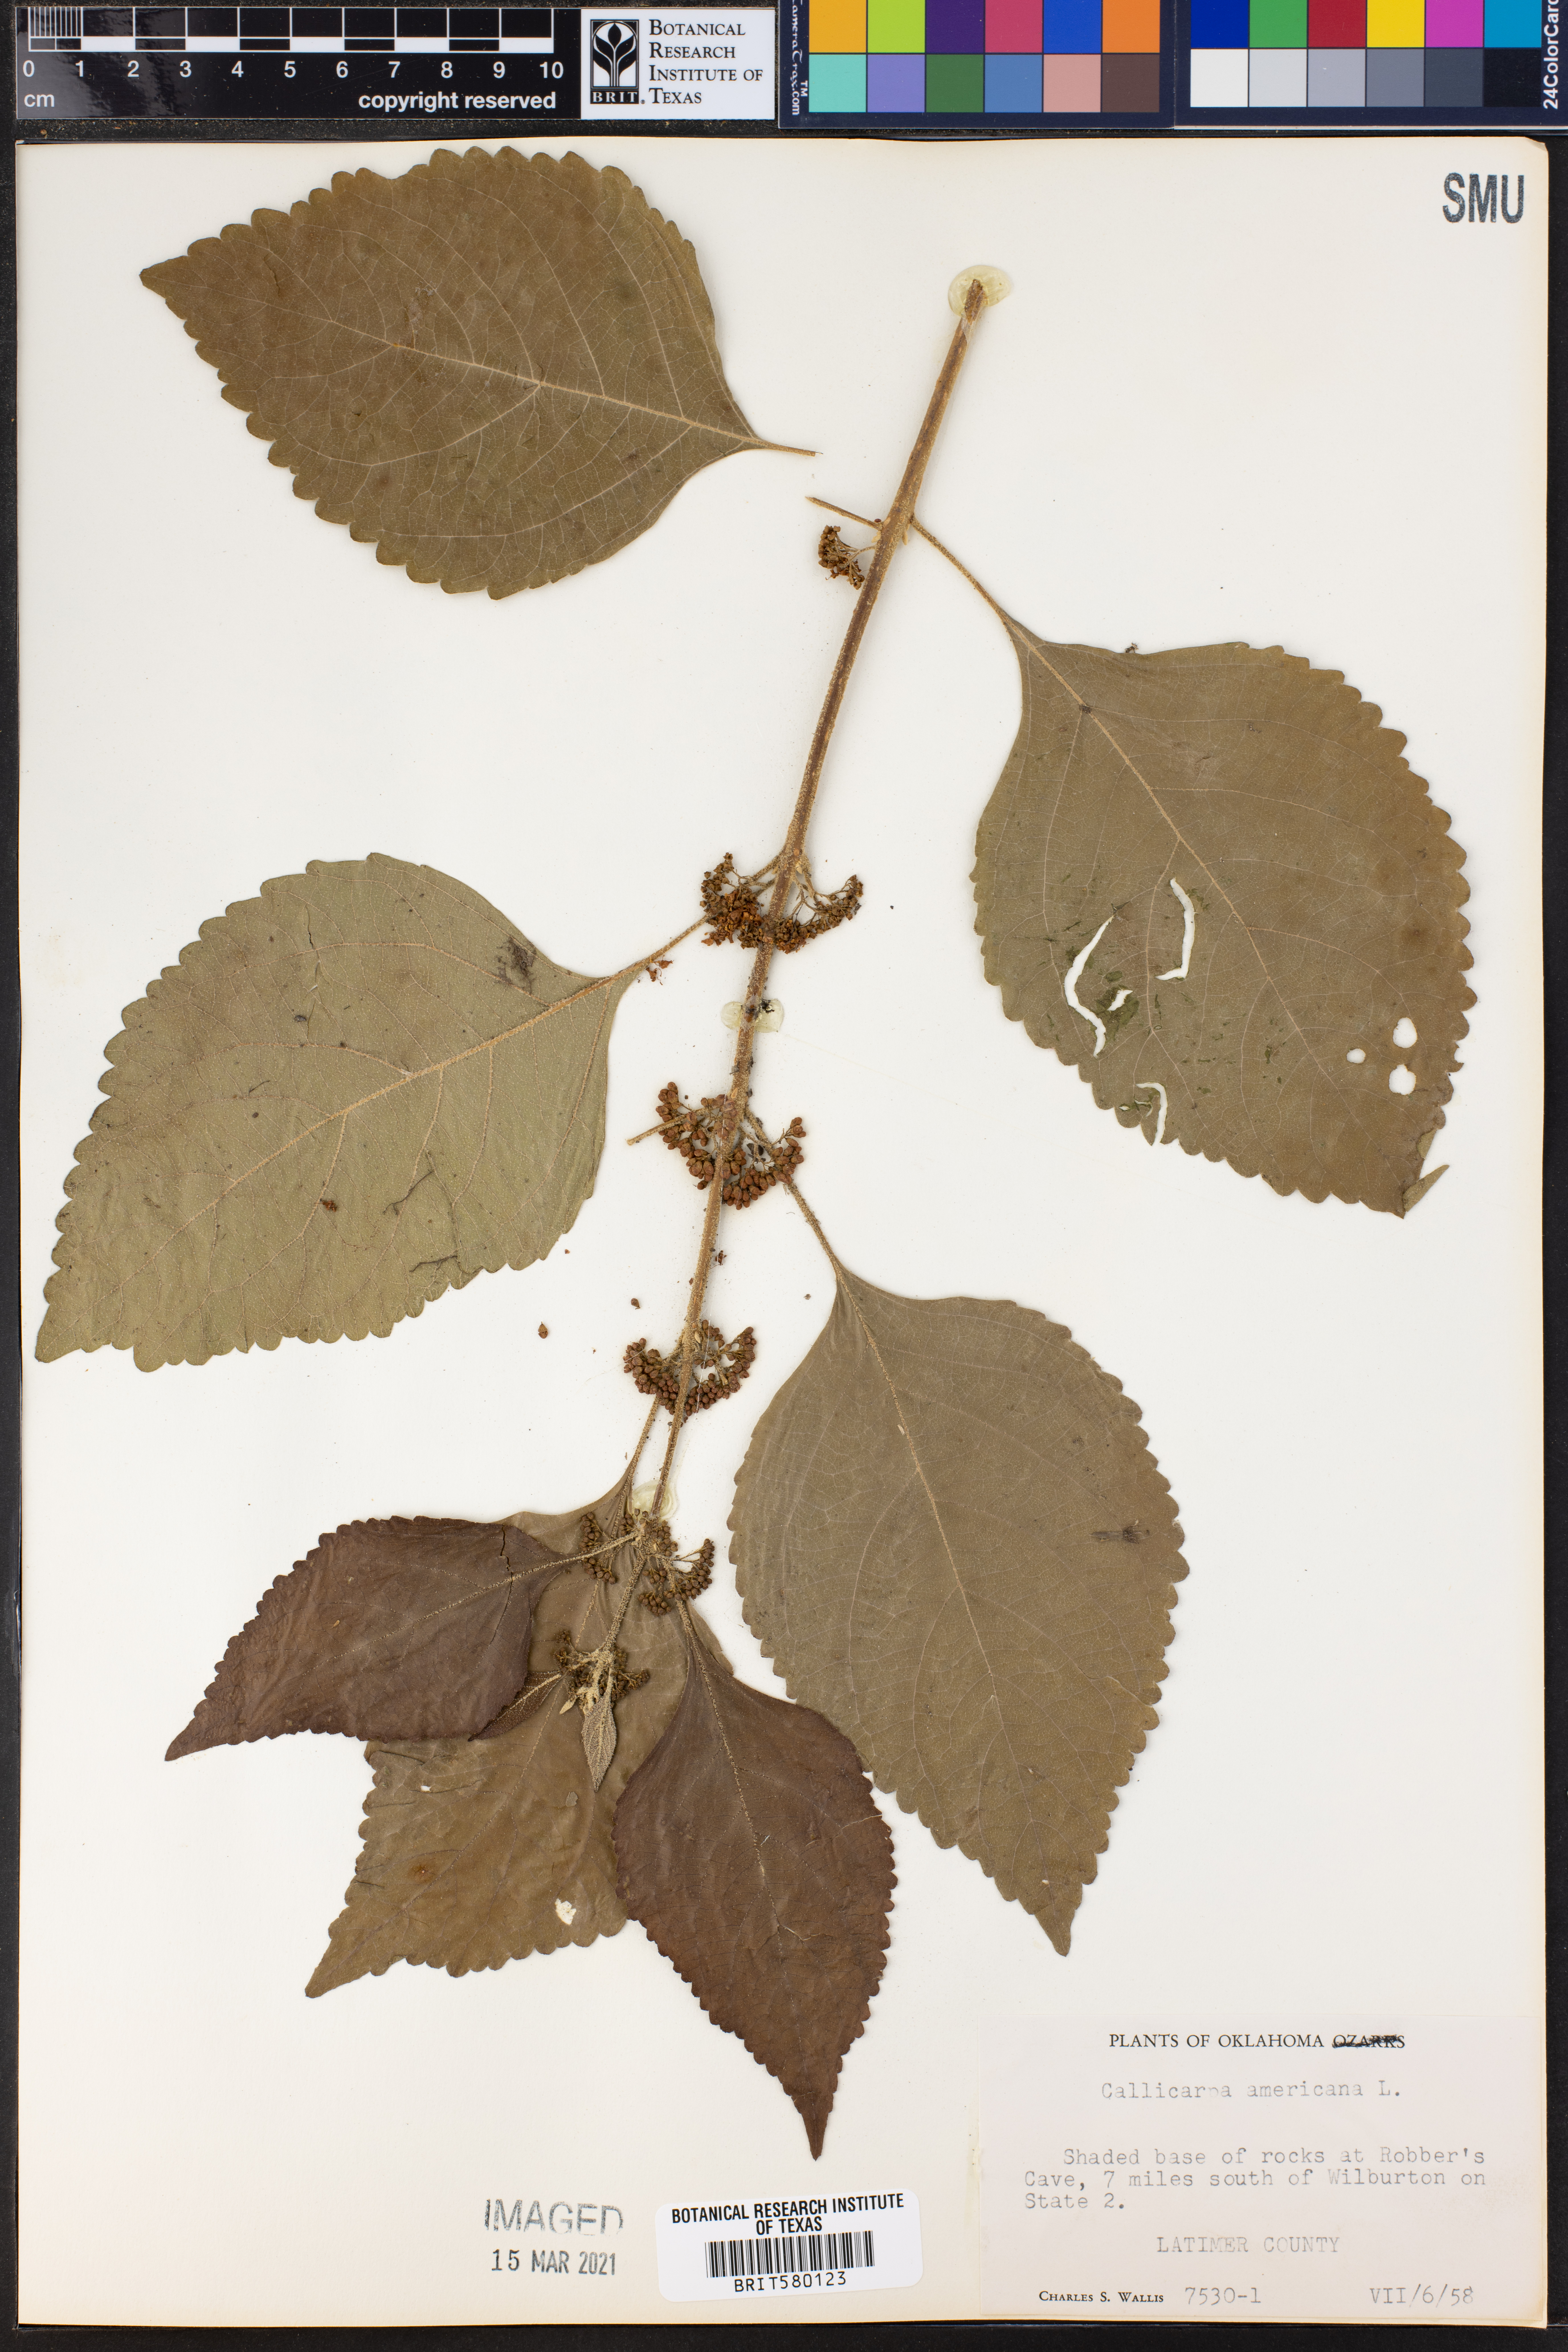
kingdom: Plantae
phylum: Tracheophyta
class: Magnoliopsida
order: Lamiales
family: Lamiaceae
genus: Callicarpa
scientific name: Callicarpa americana
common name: American beautyberry
